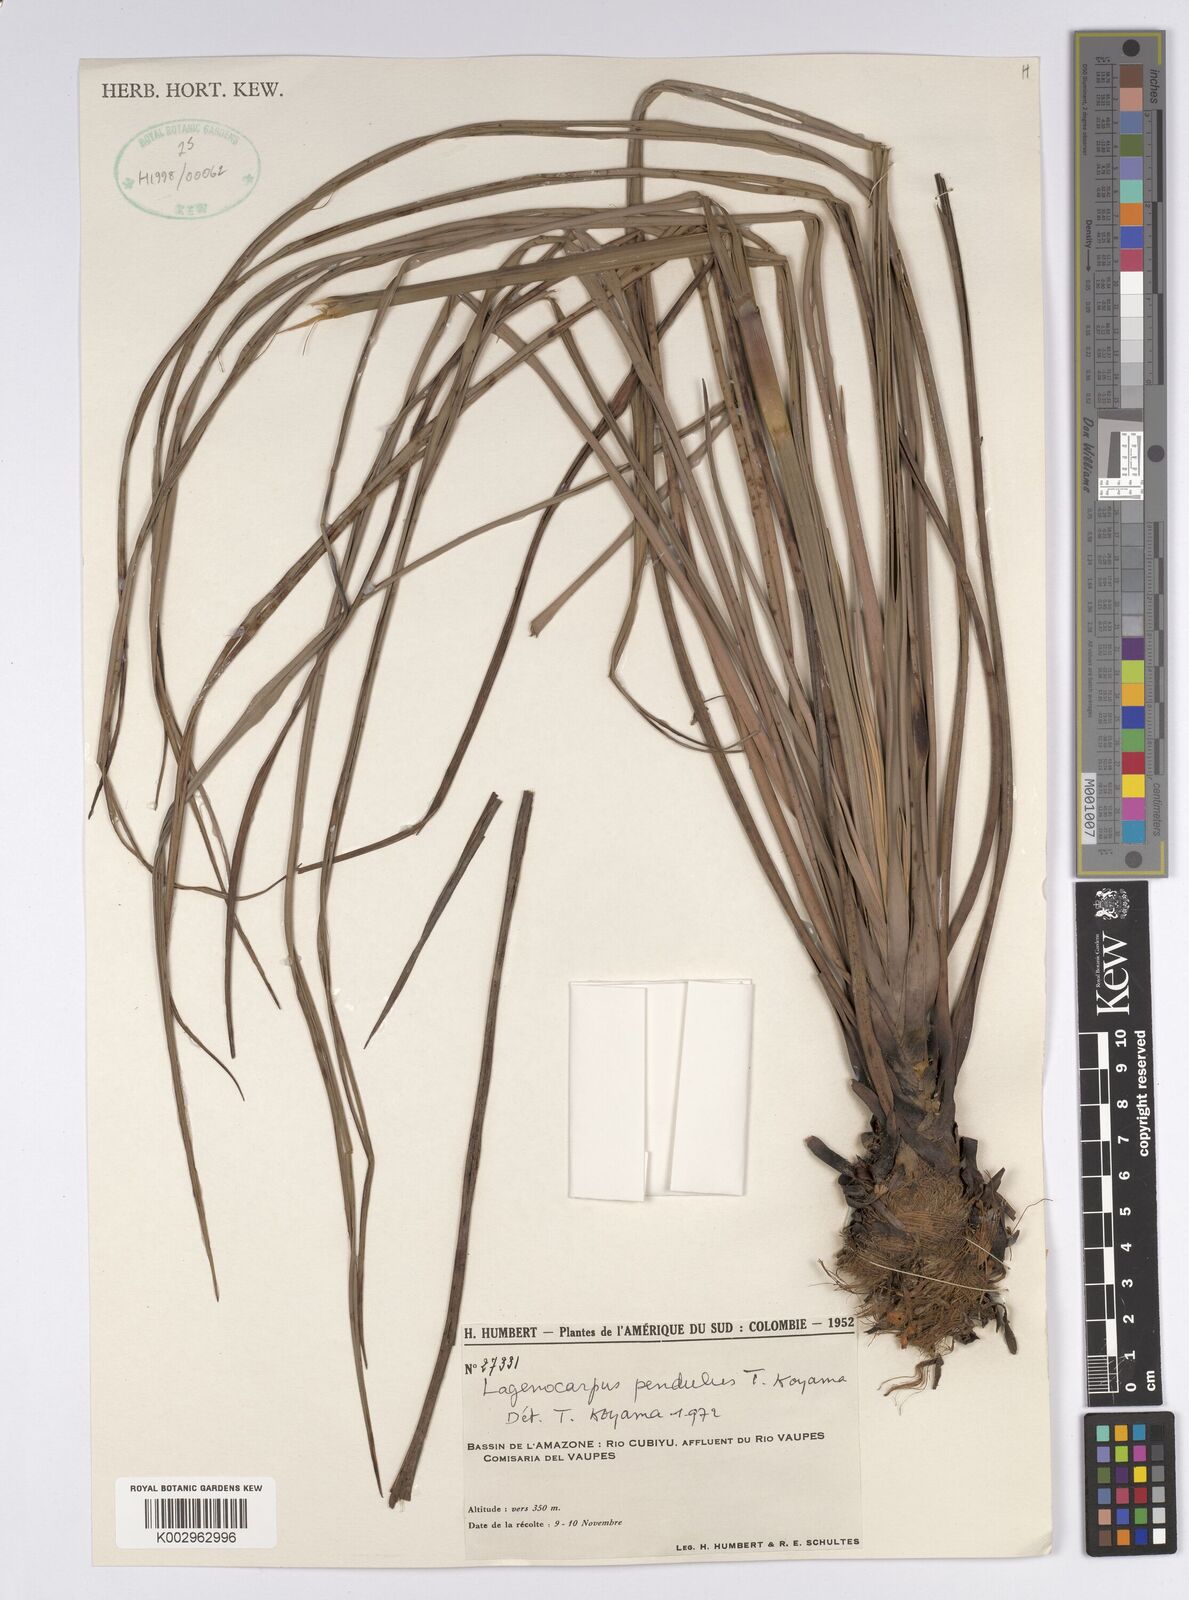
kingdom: Plantae
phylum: Tracheophyta
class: Liliopsida
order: Poales
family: Cyperaceae
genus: Lagenocarpus
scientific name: Lagenocarpus pendulus
